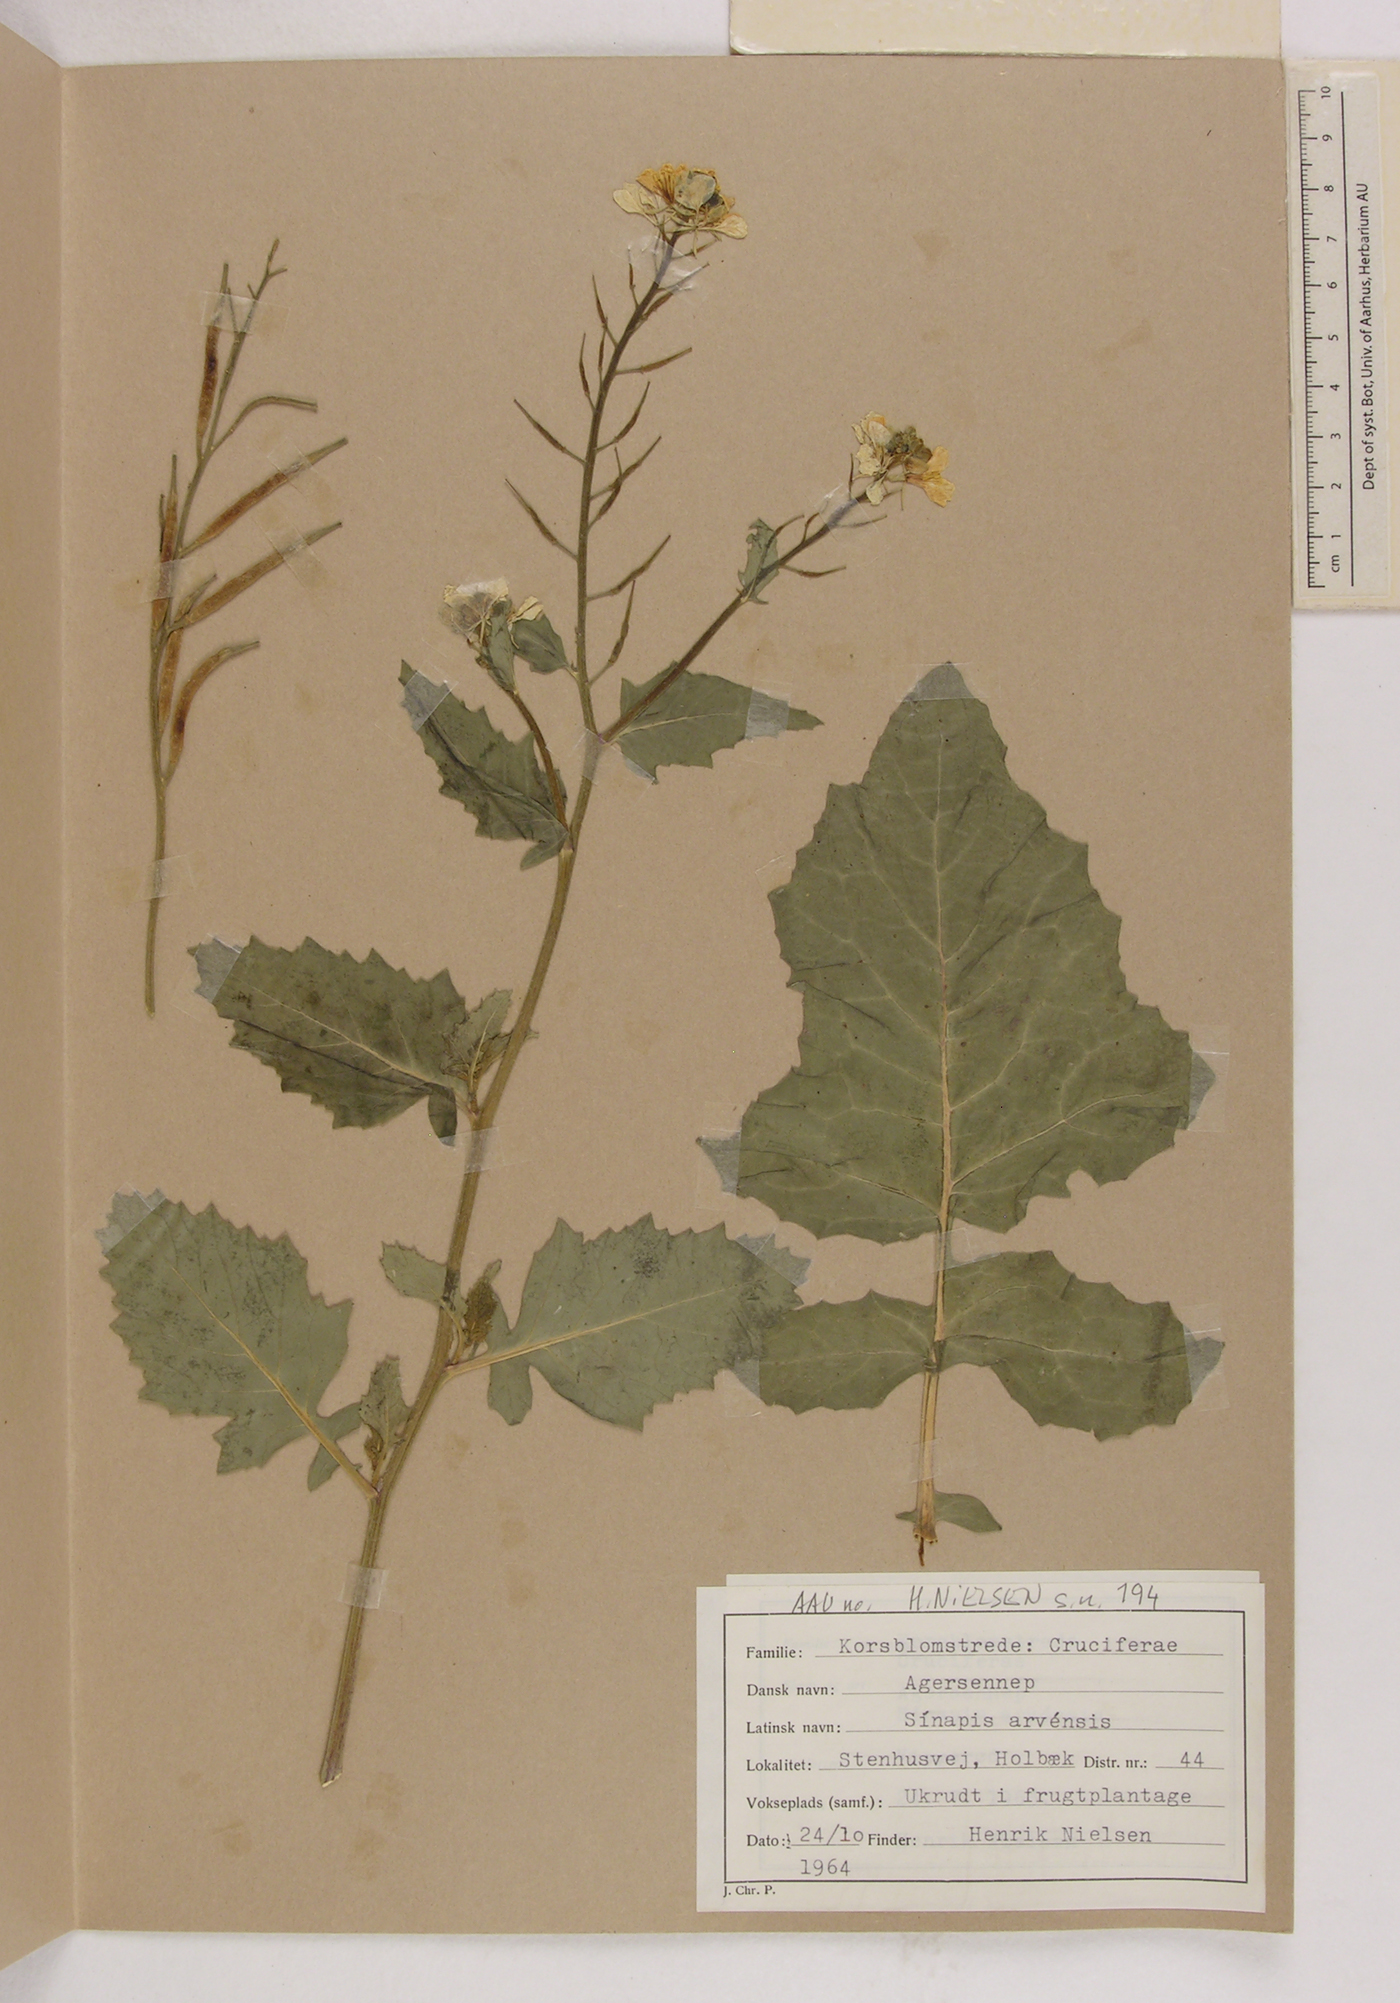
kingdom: Plantae
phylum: Tracheophyta
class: Magnoliopsida
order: Brassicales
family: Brassicaceae
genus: Sinapis
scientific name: Sinapis arvensis
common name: Charlock
